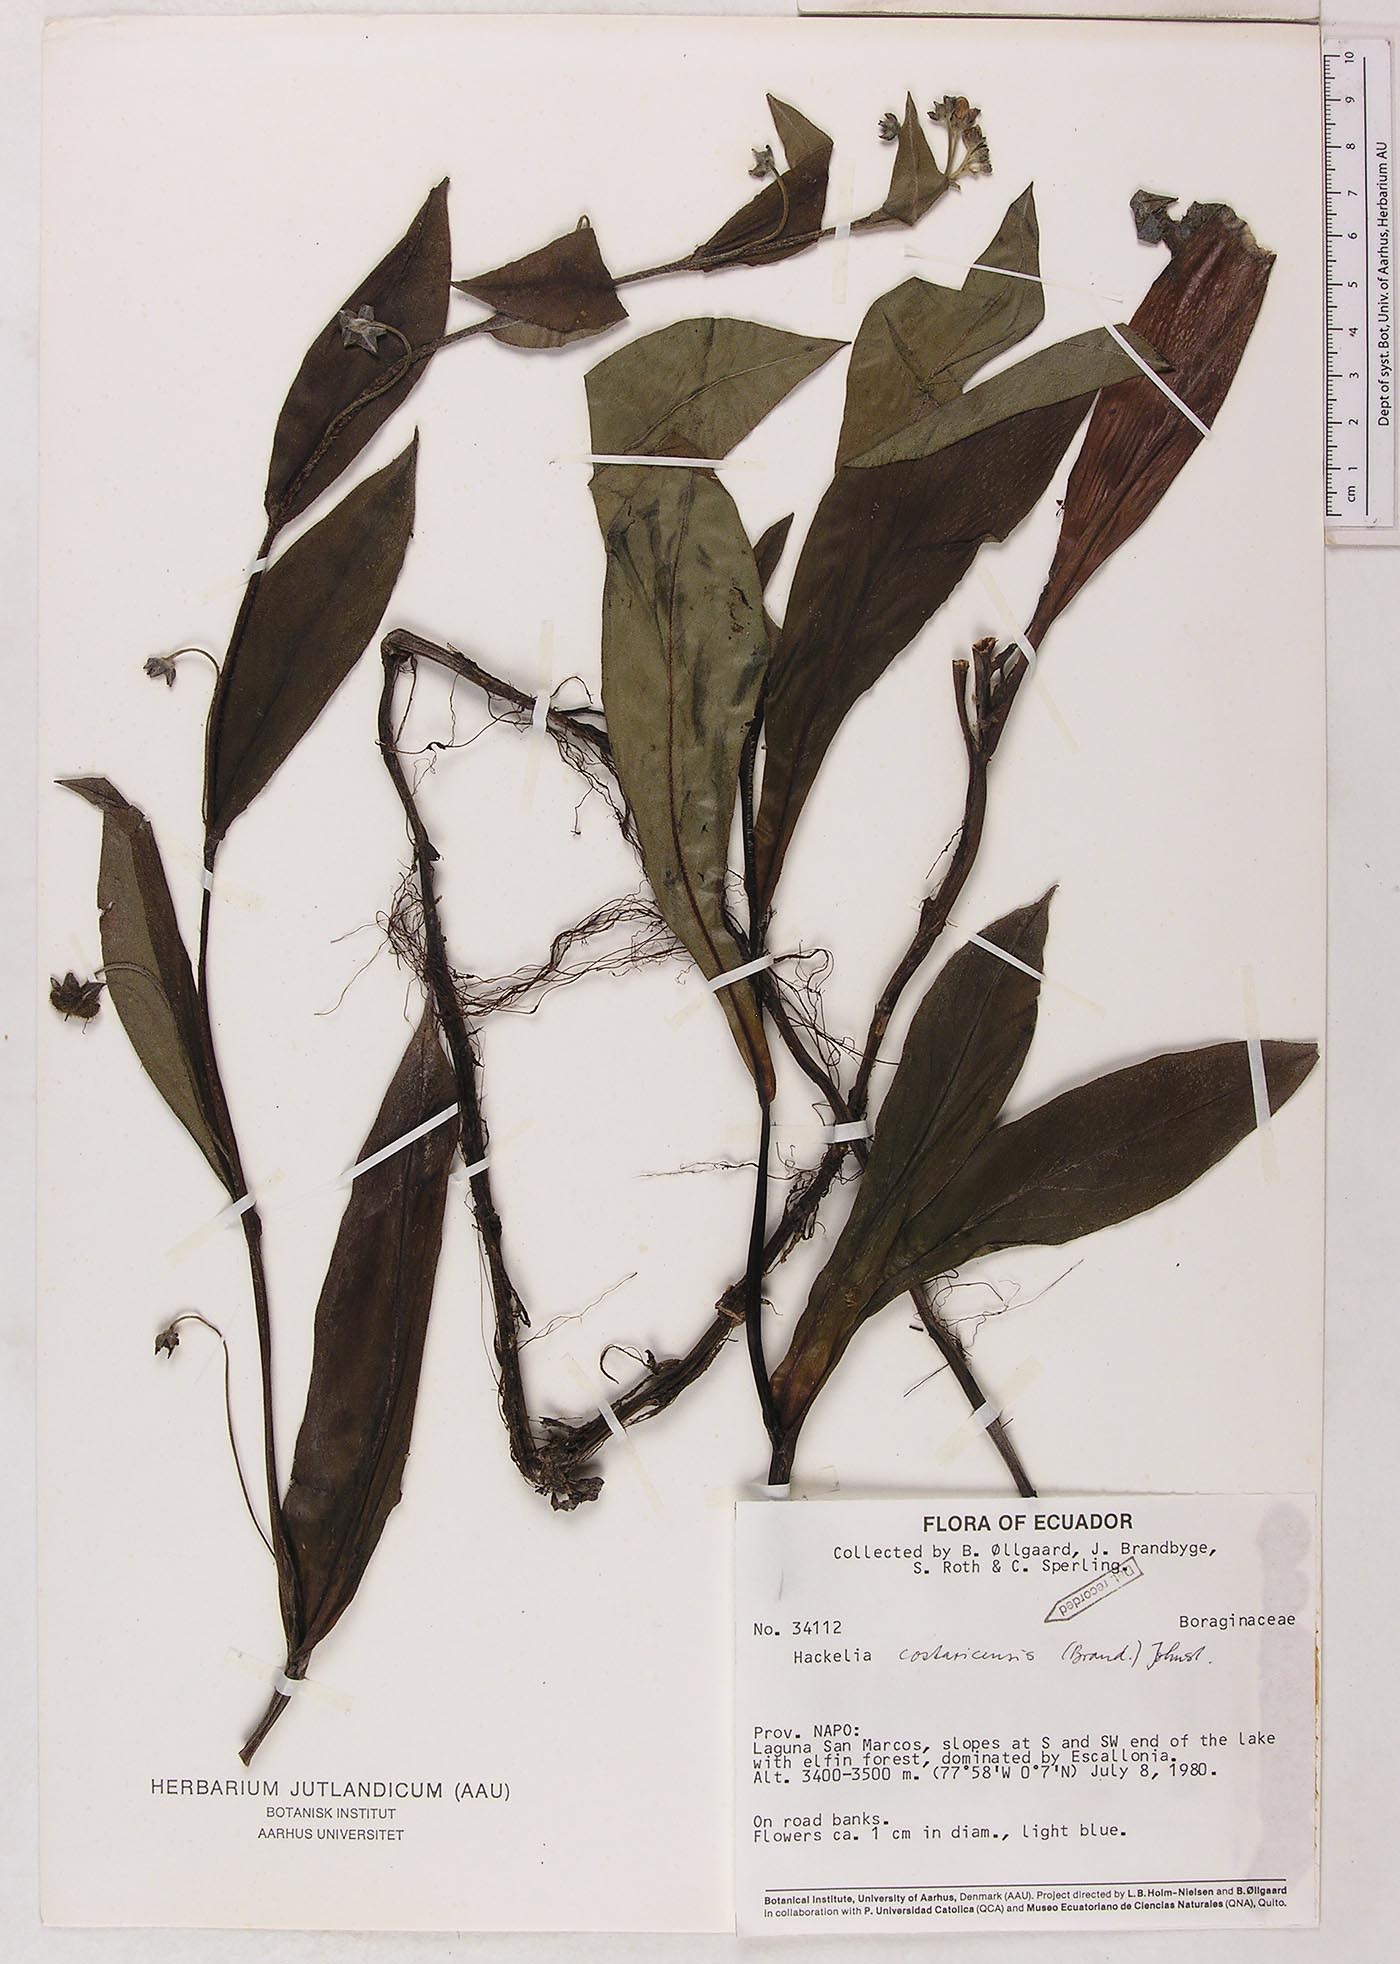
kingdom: Plantae
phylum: Tracheophyta
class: Magnoliopsida
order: Boraginales
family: Boraginaceae
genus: Selkirkia
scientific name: Selkirkia trianaeum
